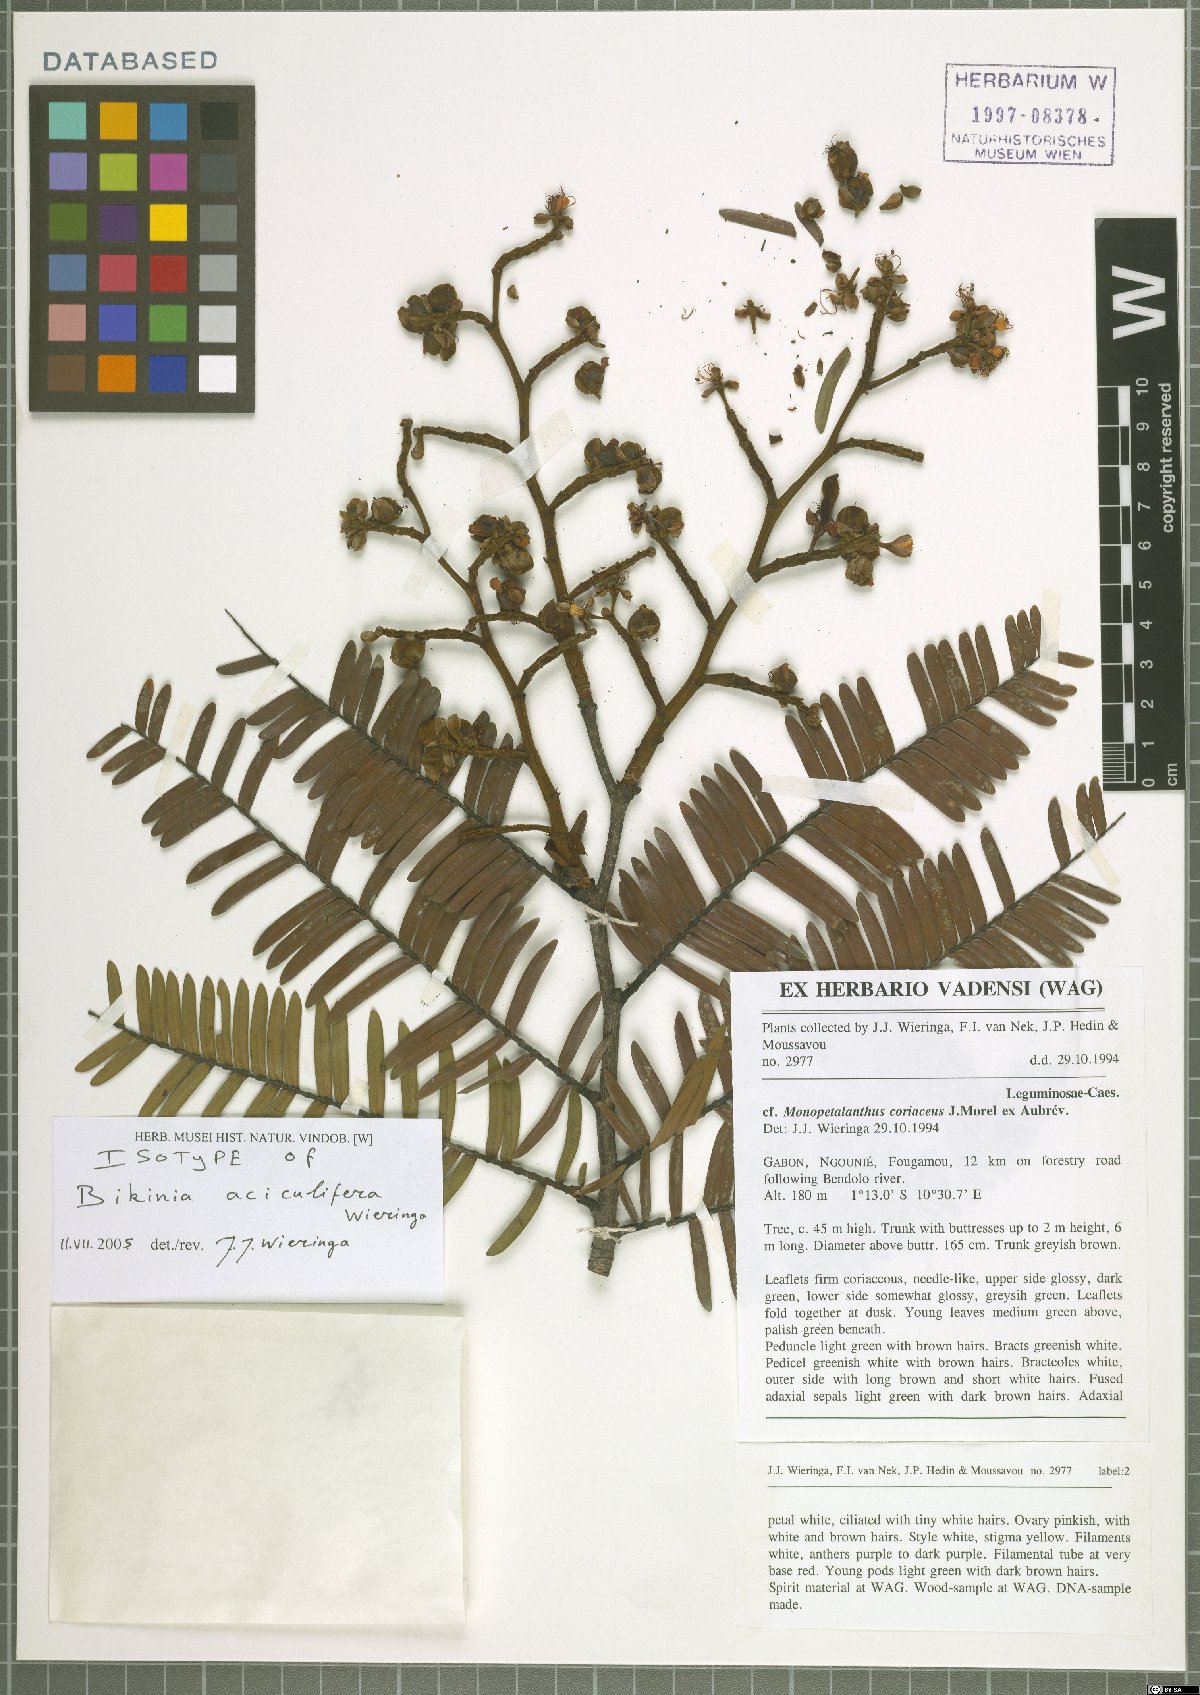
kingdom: Plantae
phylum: Tracheophyta
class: Magnoliopsida
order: Fabales
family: Fabaceae
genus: Bikinia
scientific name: Bikinia aciculifera
